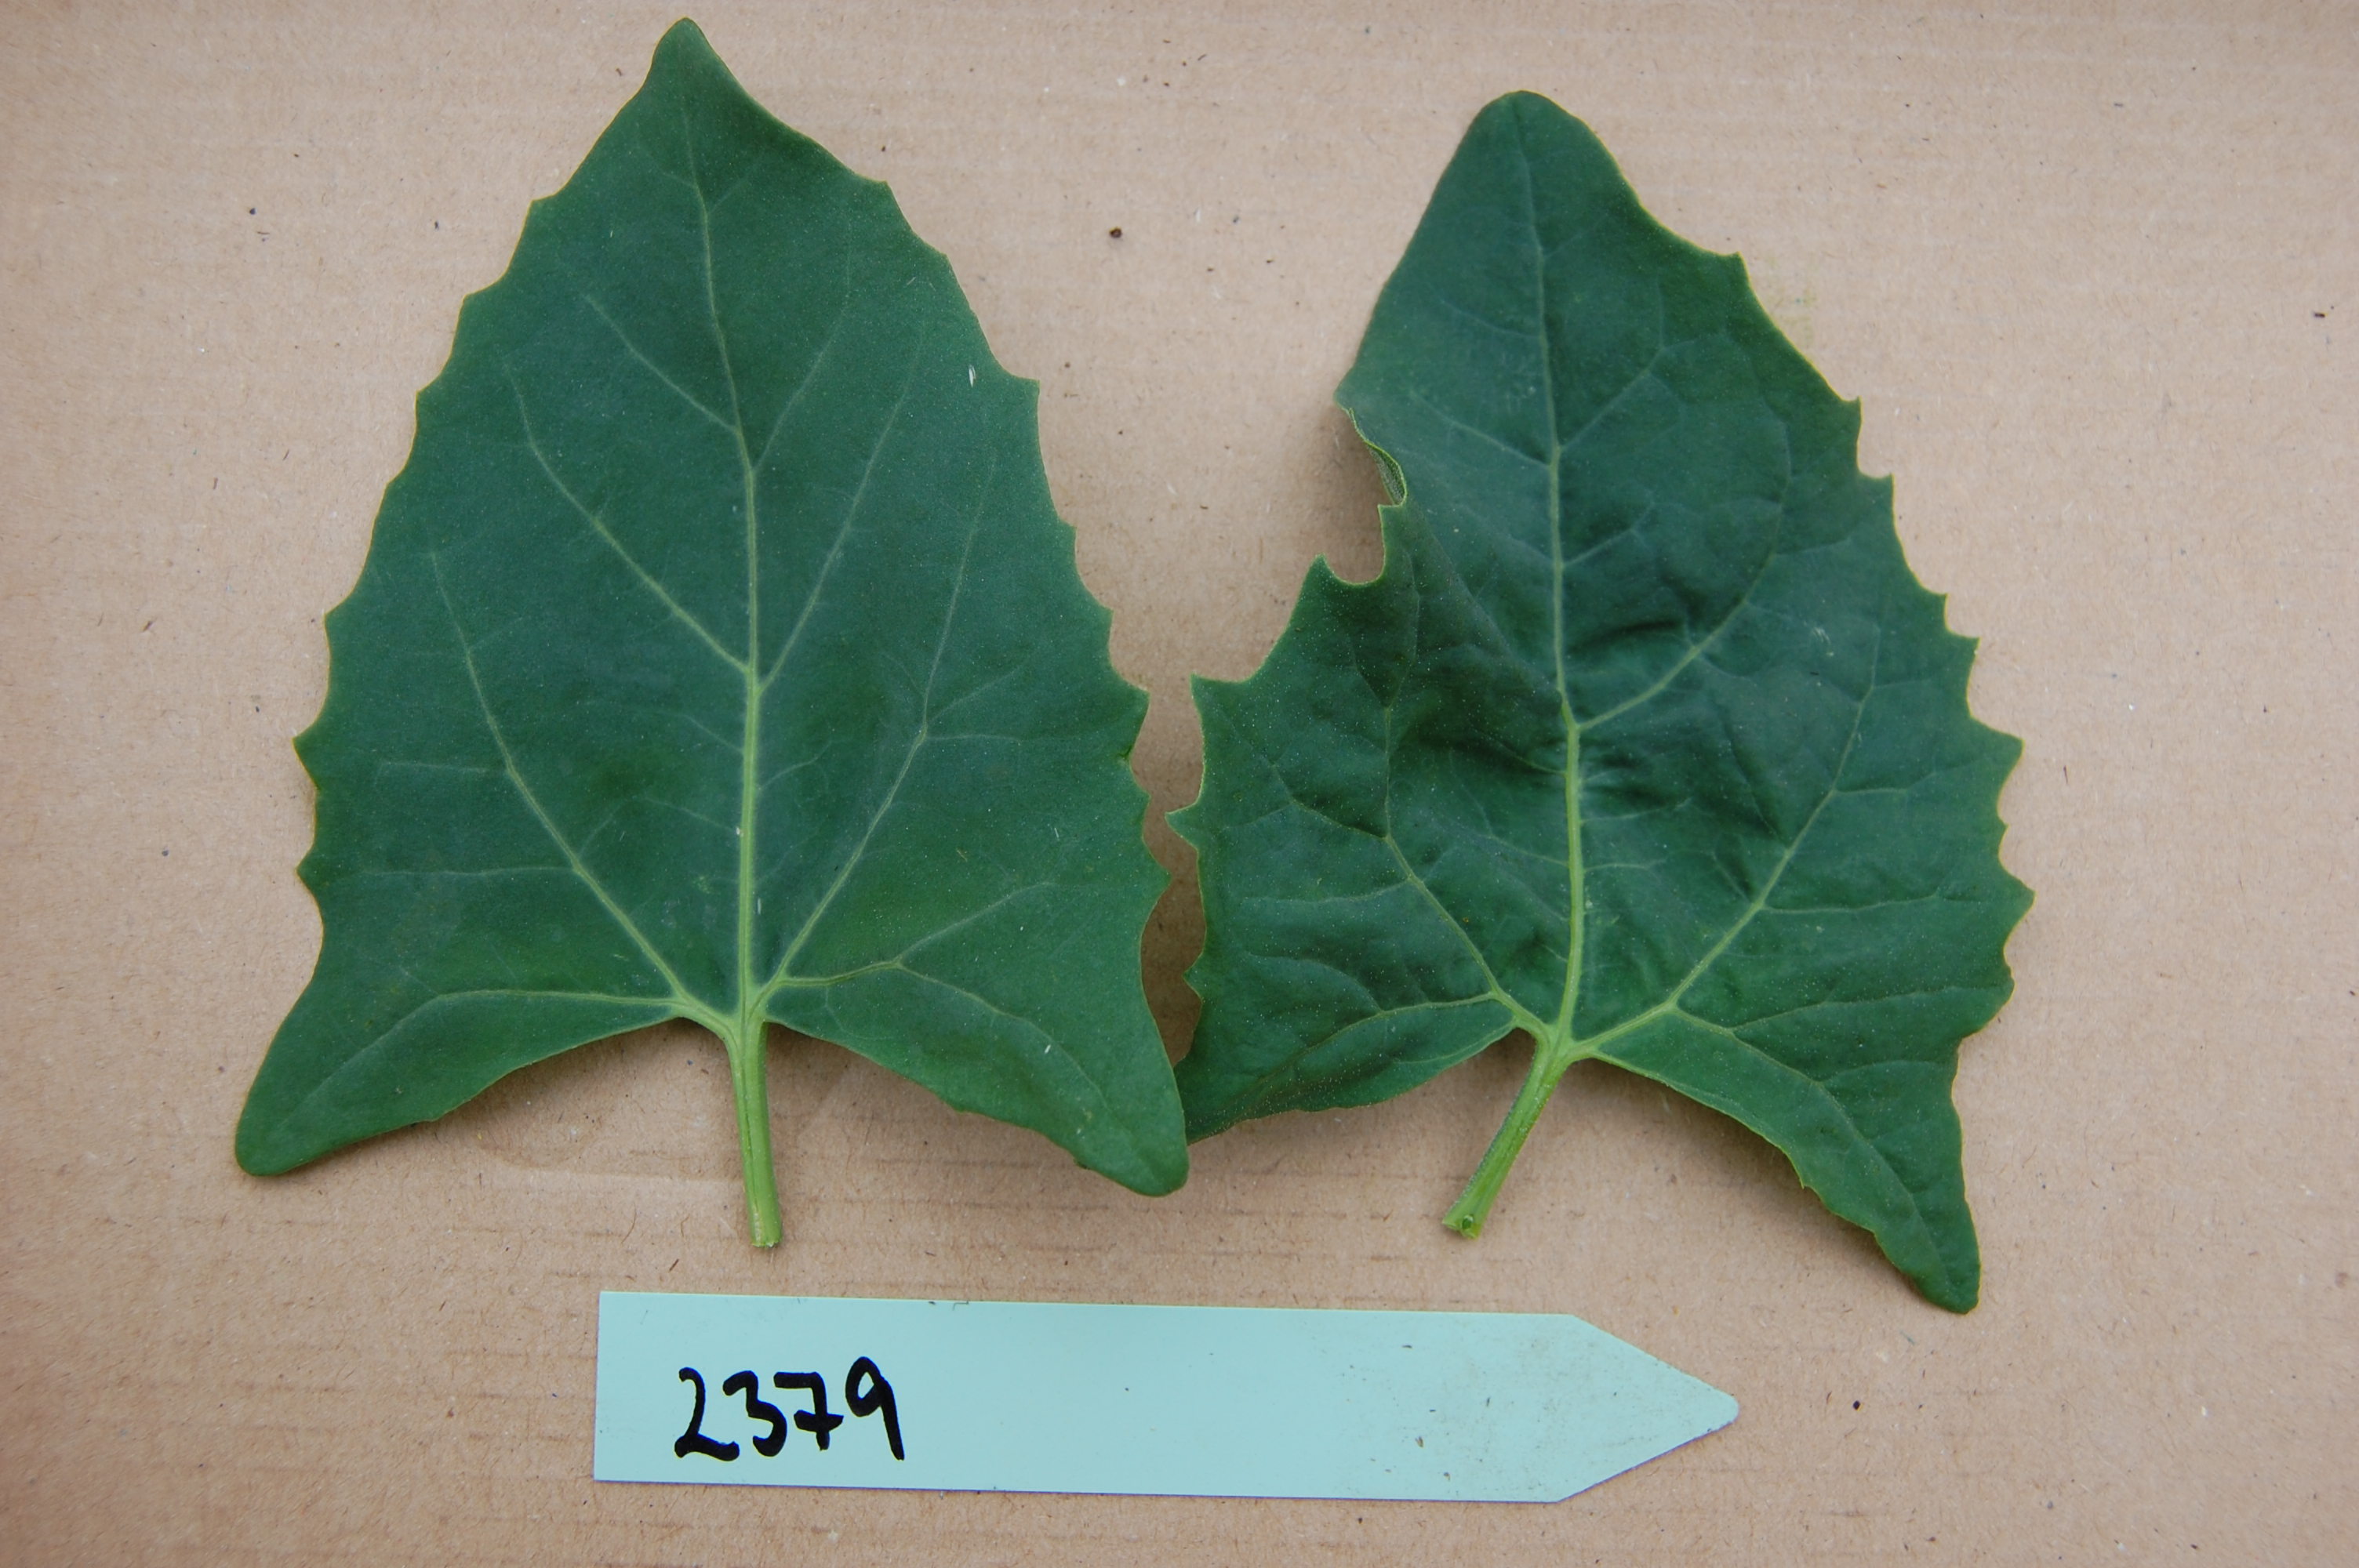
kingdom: Plantae
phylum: Tracheophyta
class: Magnoliopsida
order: Caryophyllales
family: Amaranthaceae
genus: Atriplex
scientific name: Atriplex hortensis
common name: Garden orache
